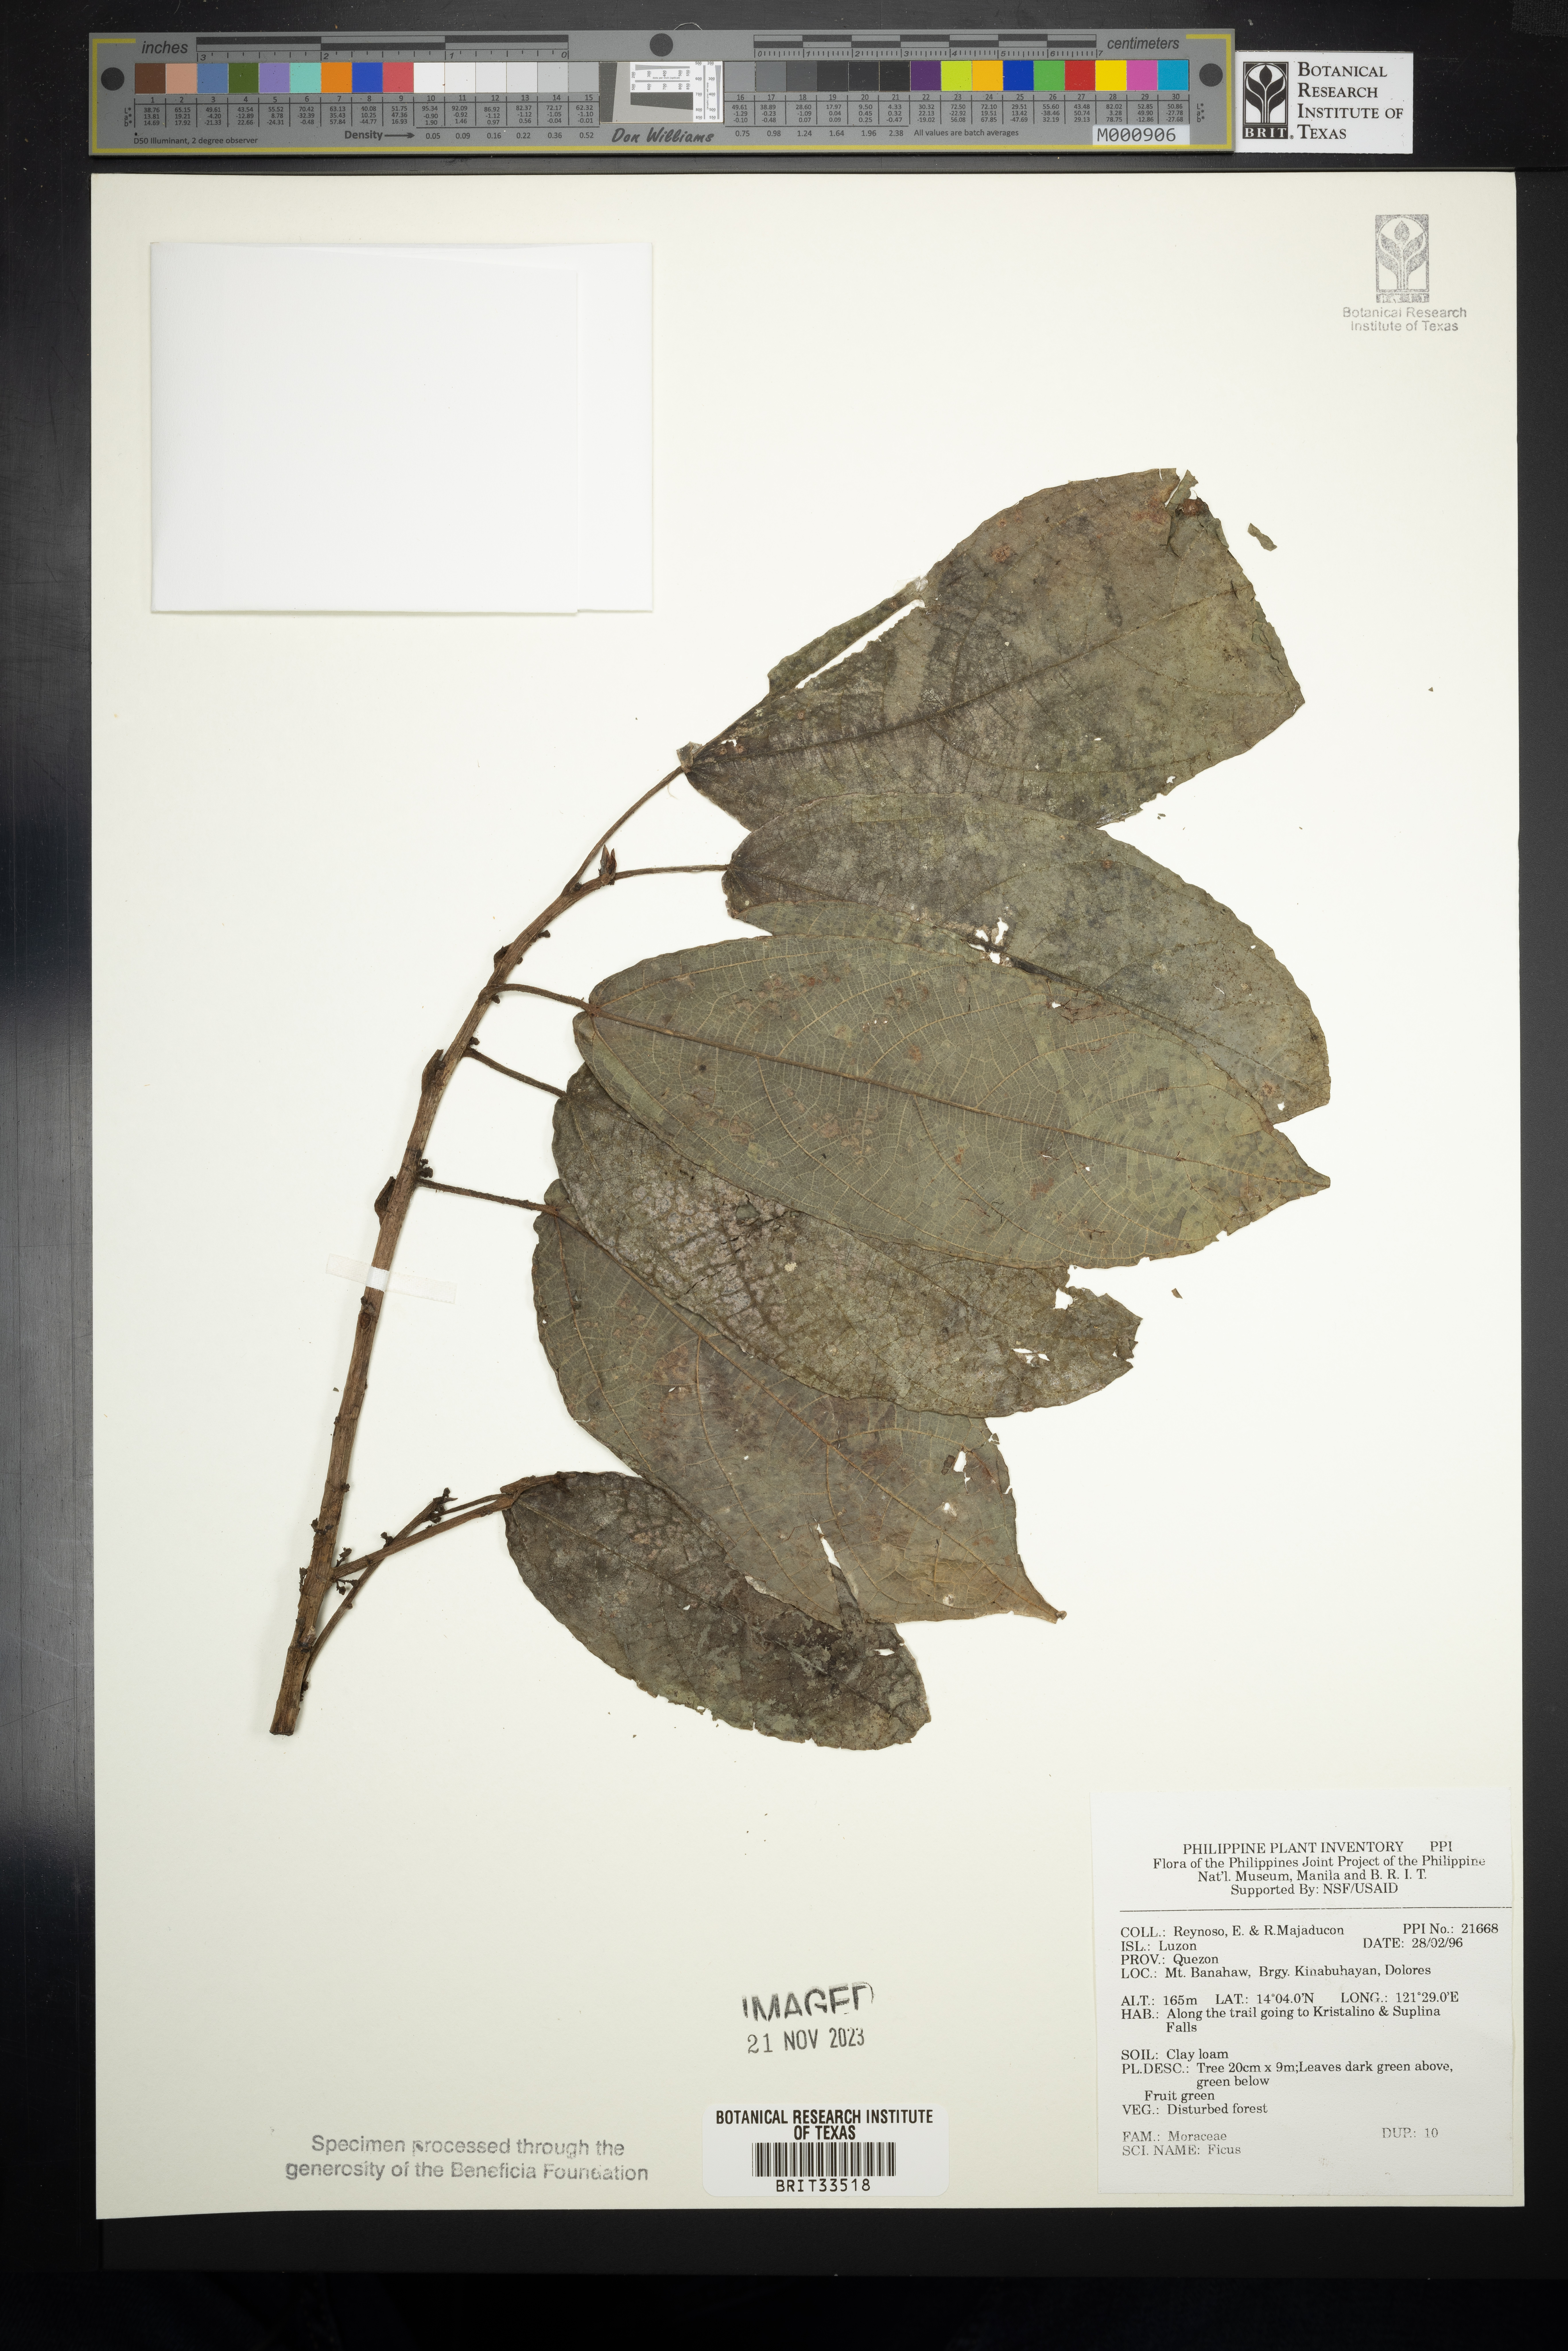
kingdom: Plantae
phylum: Tracheophyta
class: Magnoliopsida
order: Rosales
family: Moraceae
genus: Ficus
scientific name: Ficus
